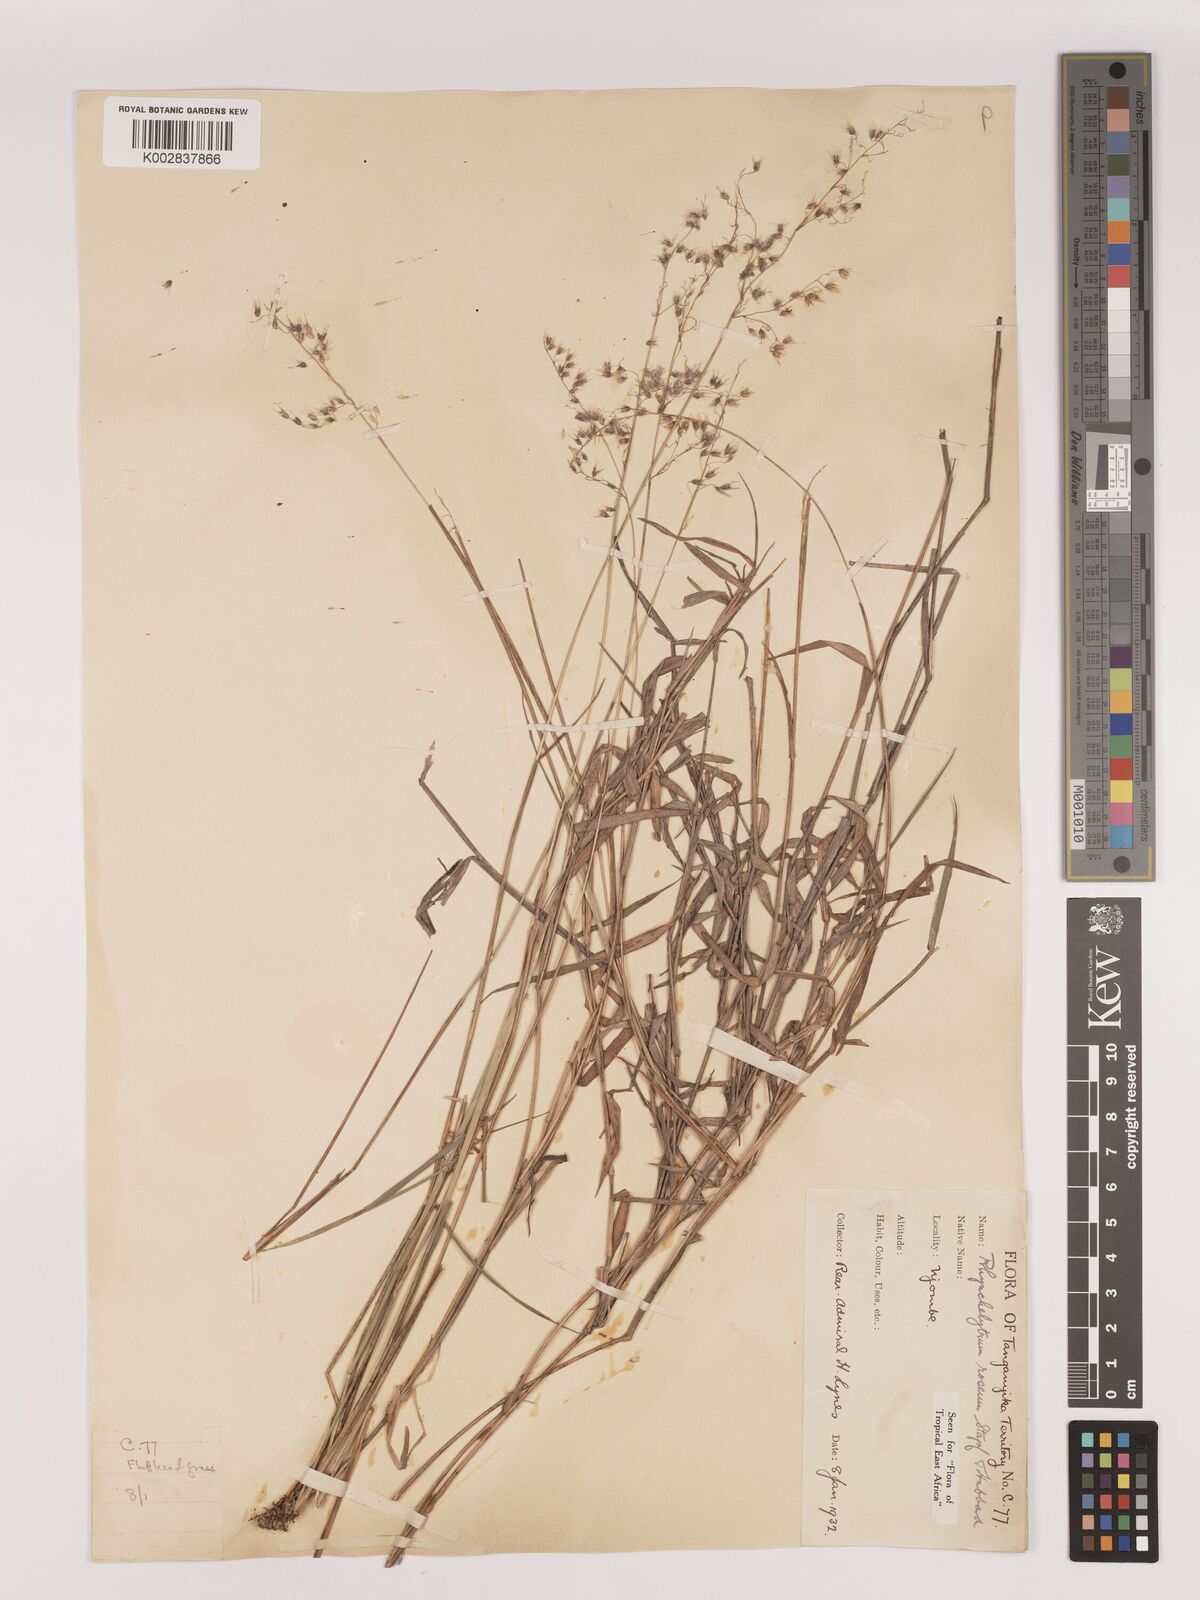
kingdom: Plantae
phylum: Tracheophyta
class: Liliopsida
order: Poales
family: Poaceae
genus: Melinis
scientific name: Melinis repens
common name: Rose natal grass
